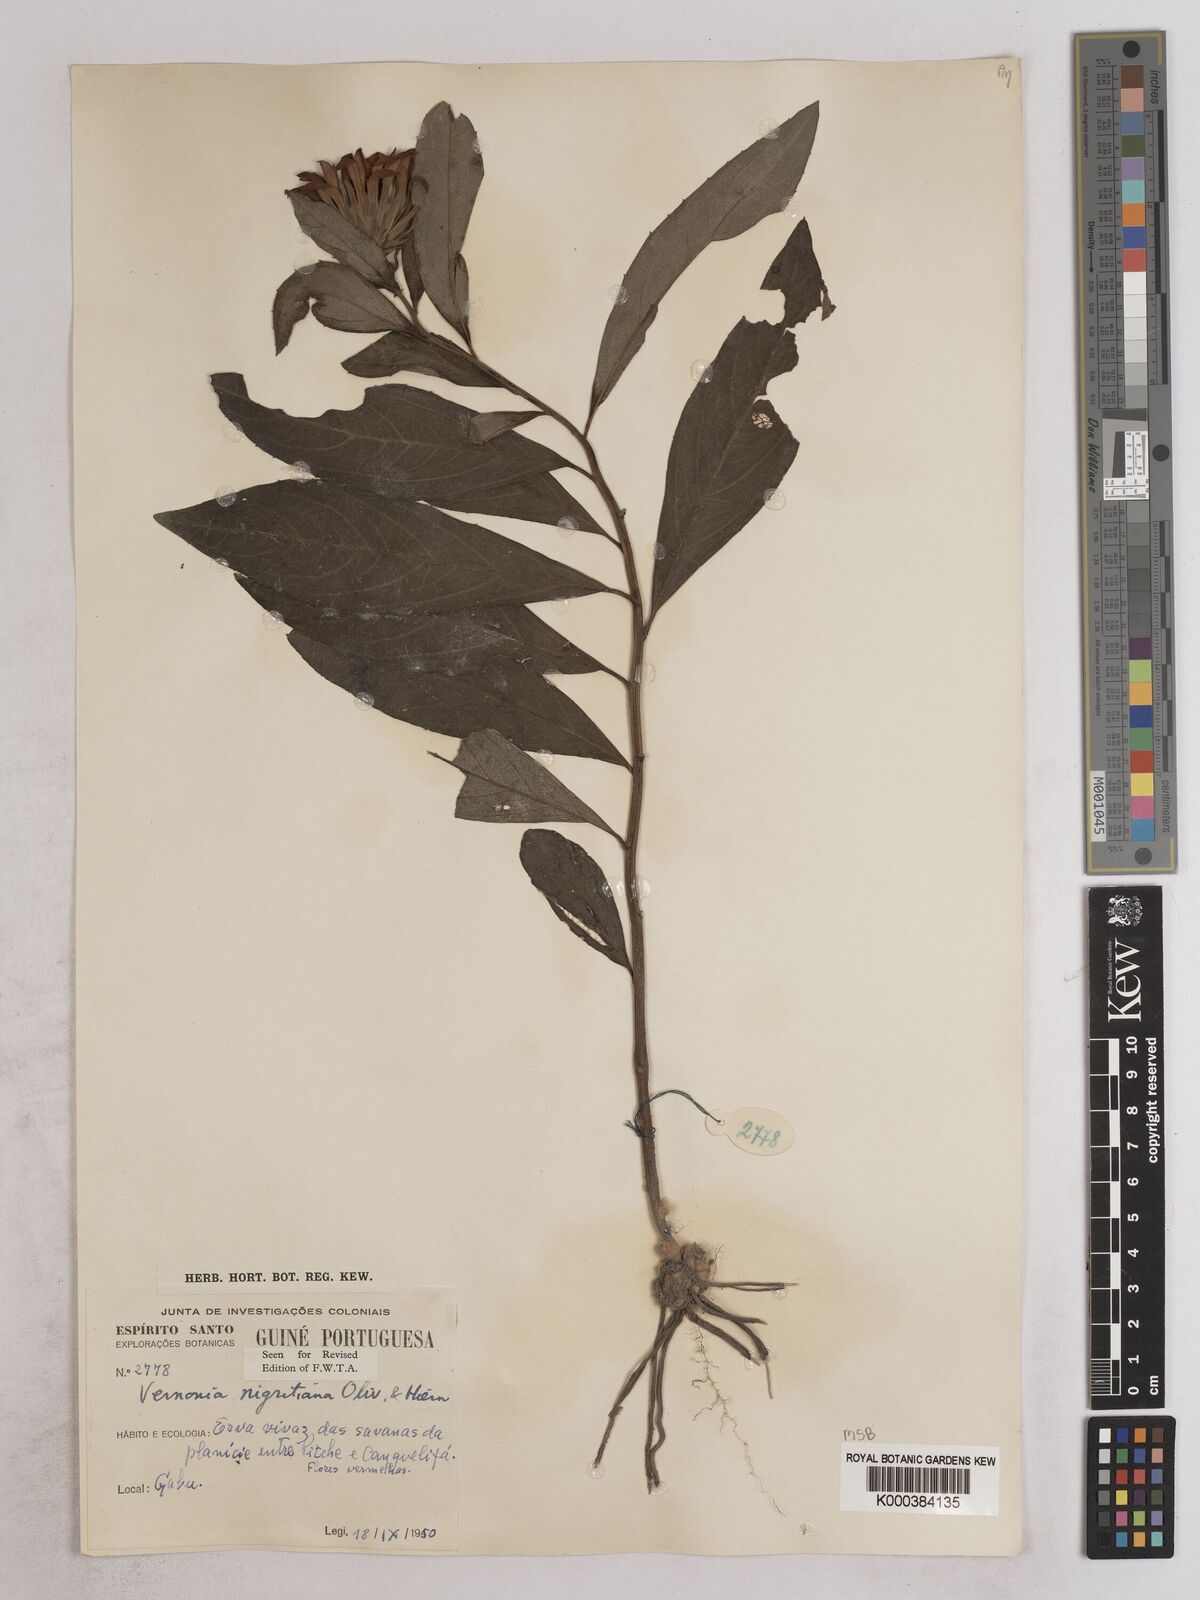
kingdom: Plantae
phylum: Tracheophyta
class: Magnoliopsida
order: Asterales
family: Asteraceae
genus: Linzia
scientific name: Linzia nigritiana
